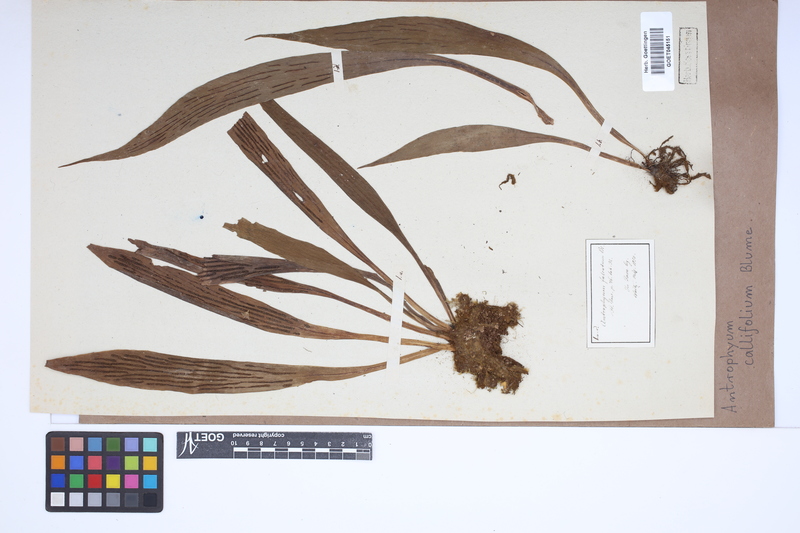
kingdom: Plantae
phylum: Tracheophyta
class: Polypodiopsida
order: Polypodiales
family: Pteridaceae
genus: Antrophyum
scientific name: Antrophyum callifolium
